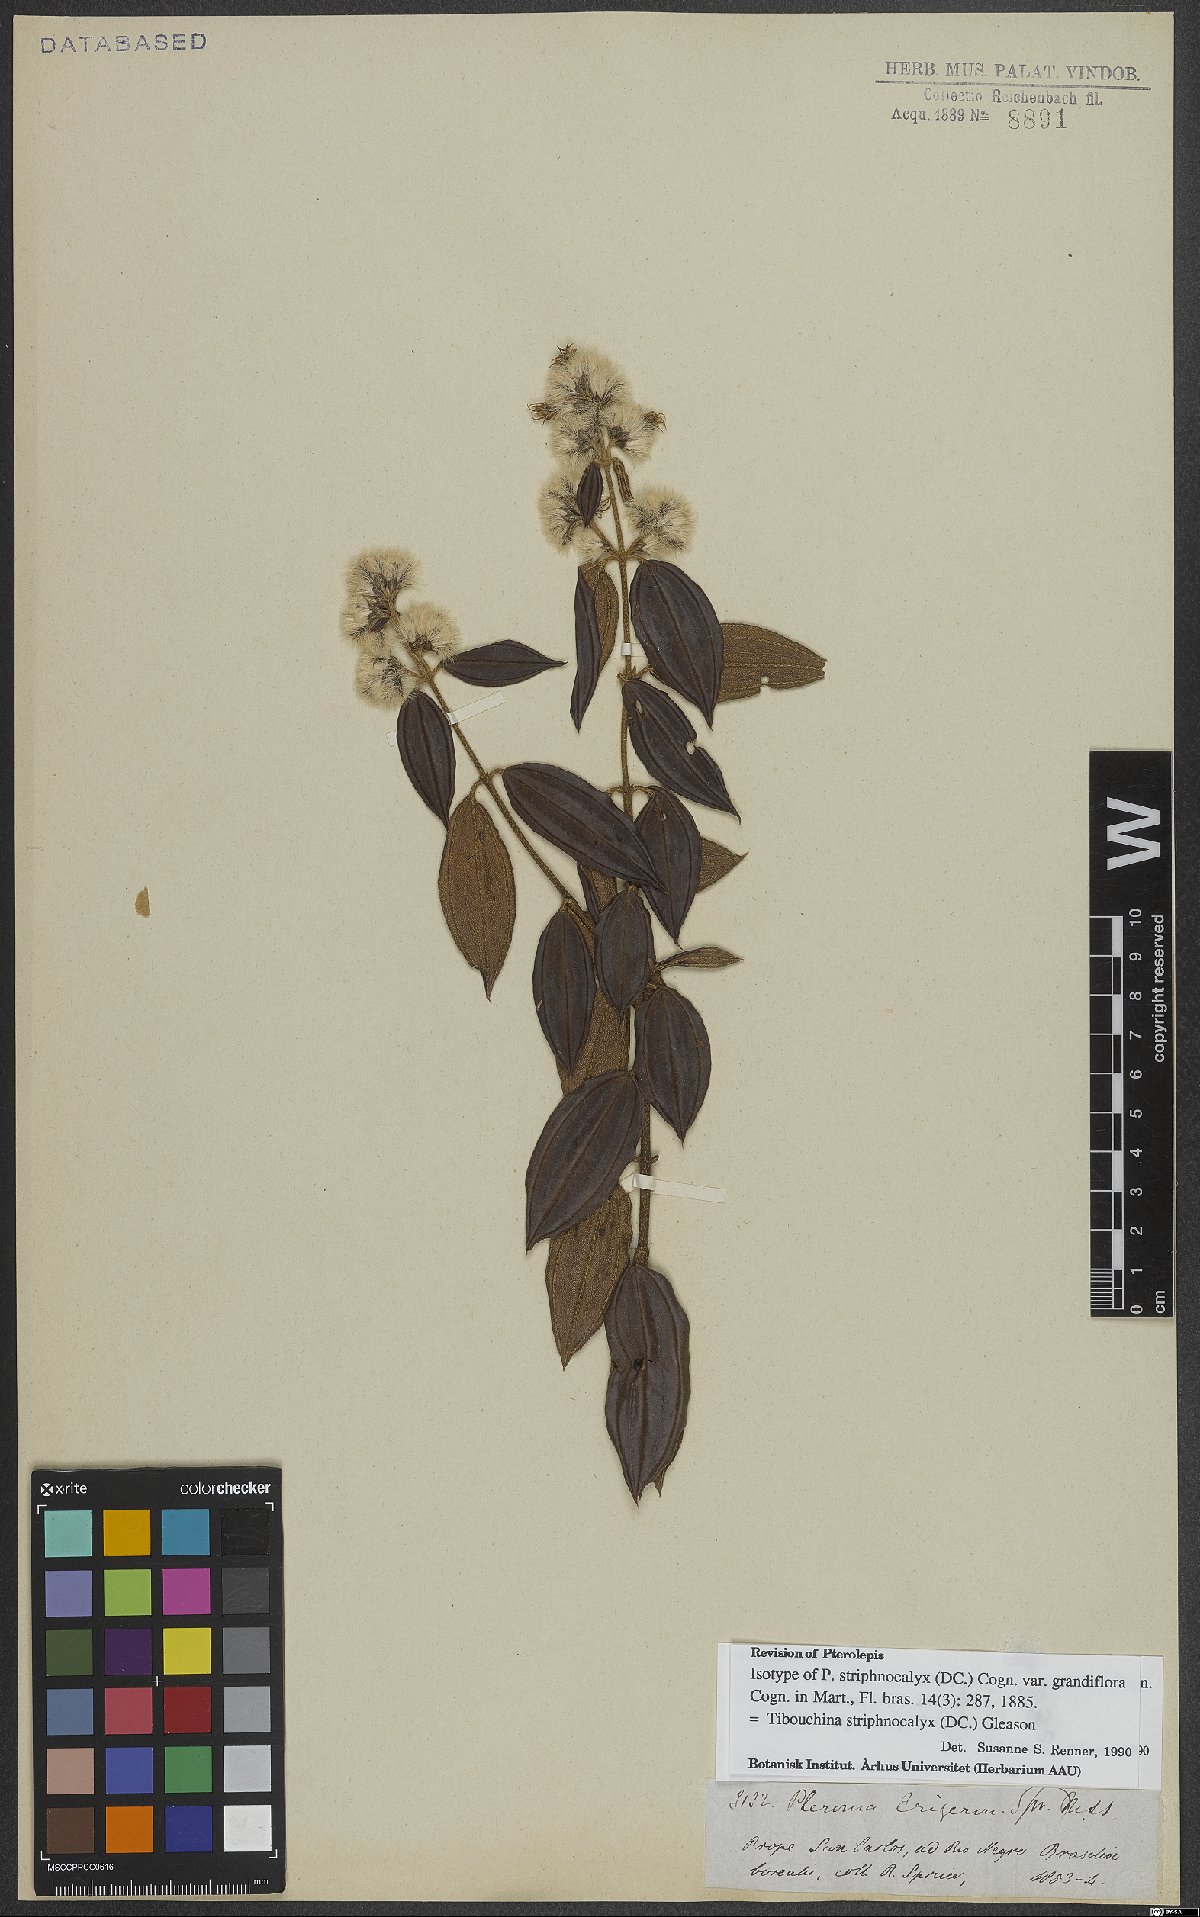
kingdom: Plantae
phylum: Tracheophyta
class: Magnoliopsida
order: Myrtales
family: Melastomataceae
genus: Chaetogastra
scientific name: Chaetogastra striphnocalyx
